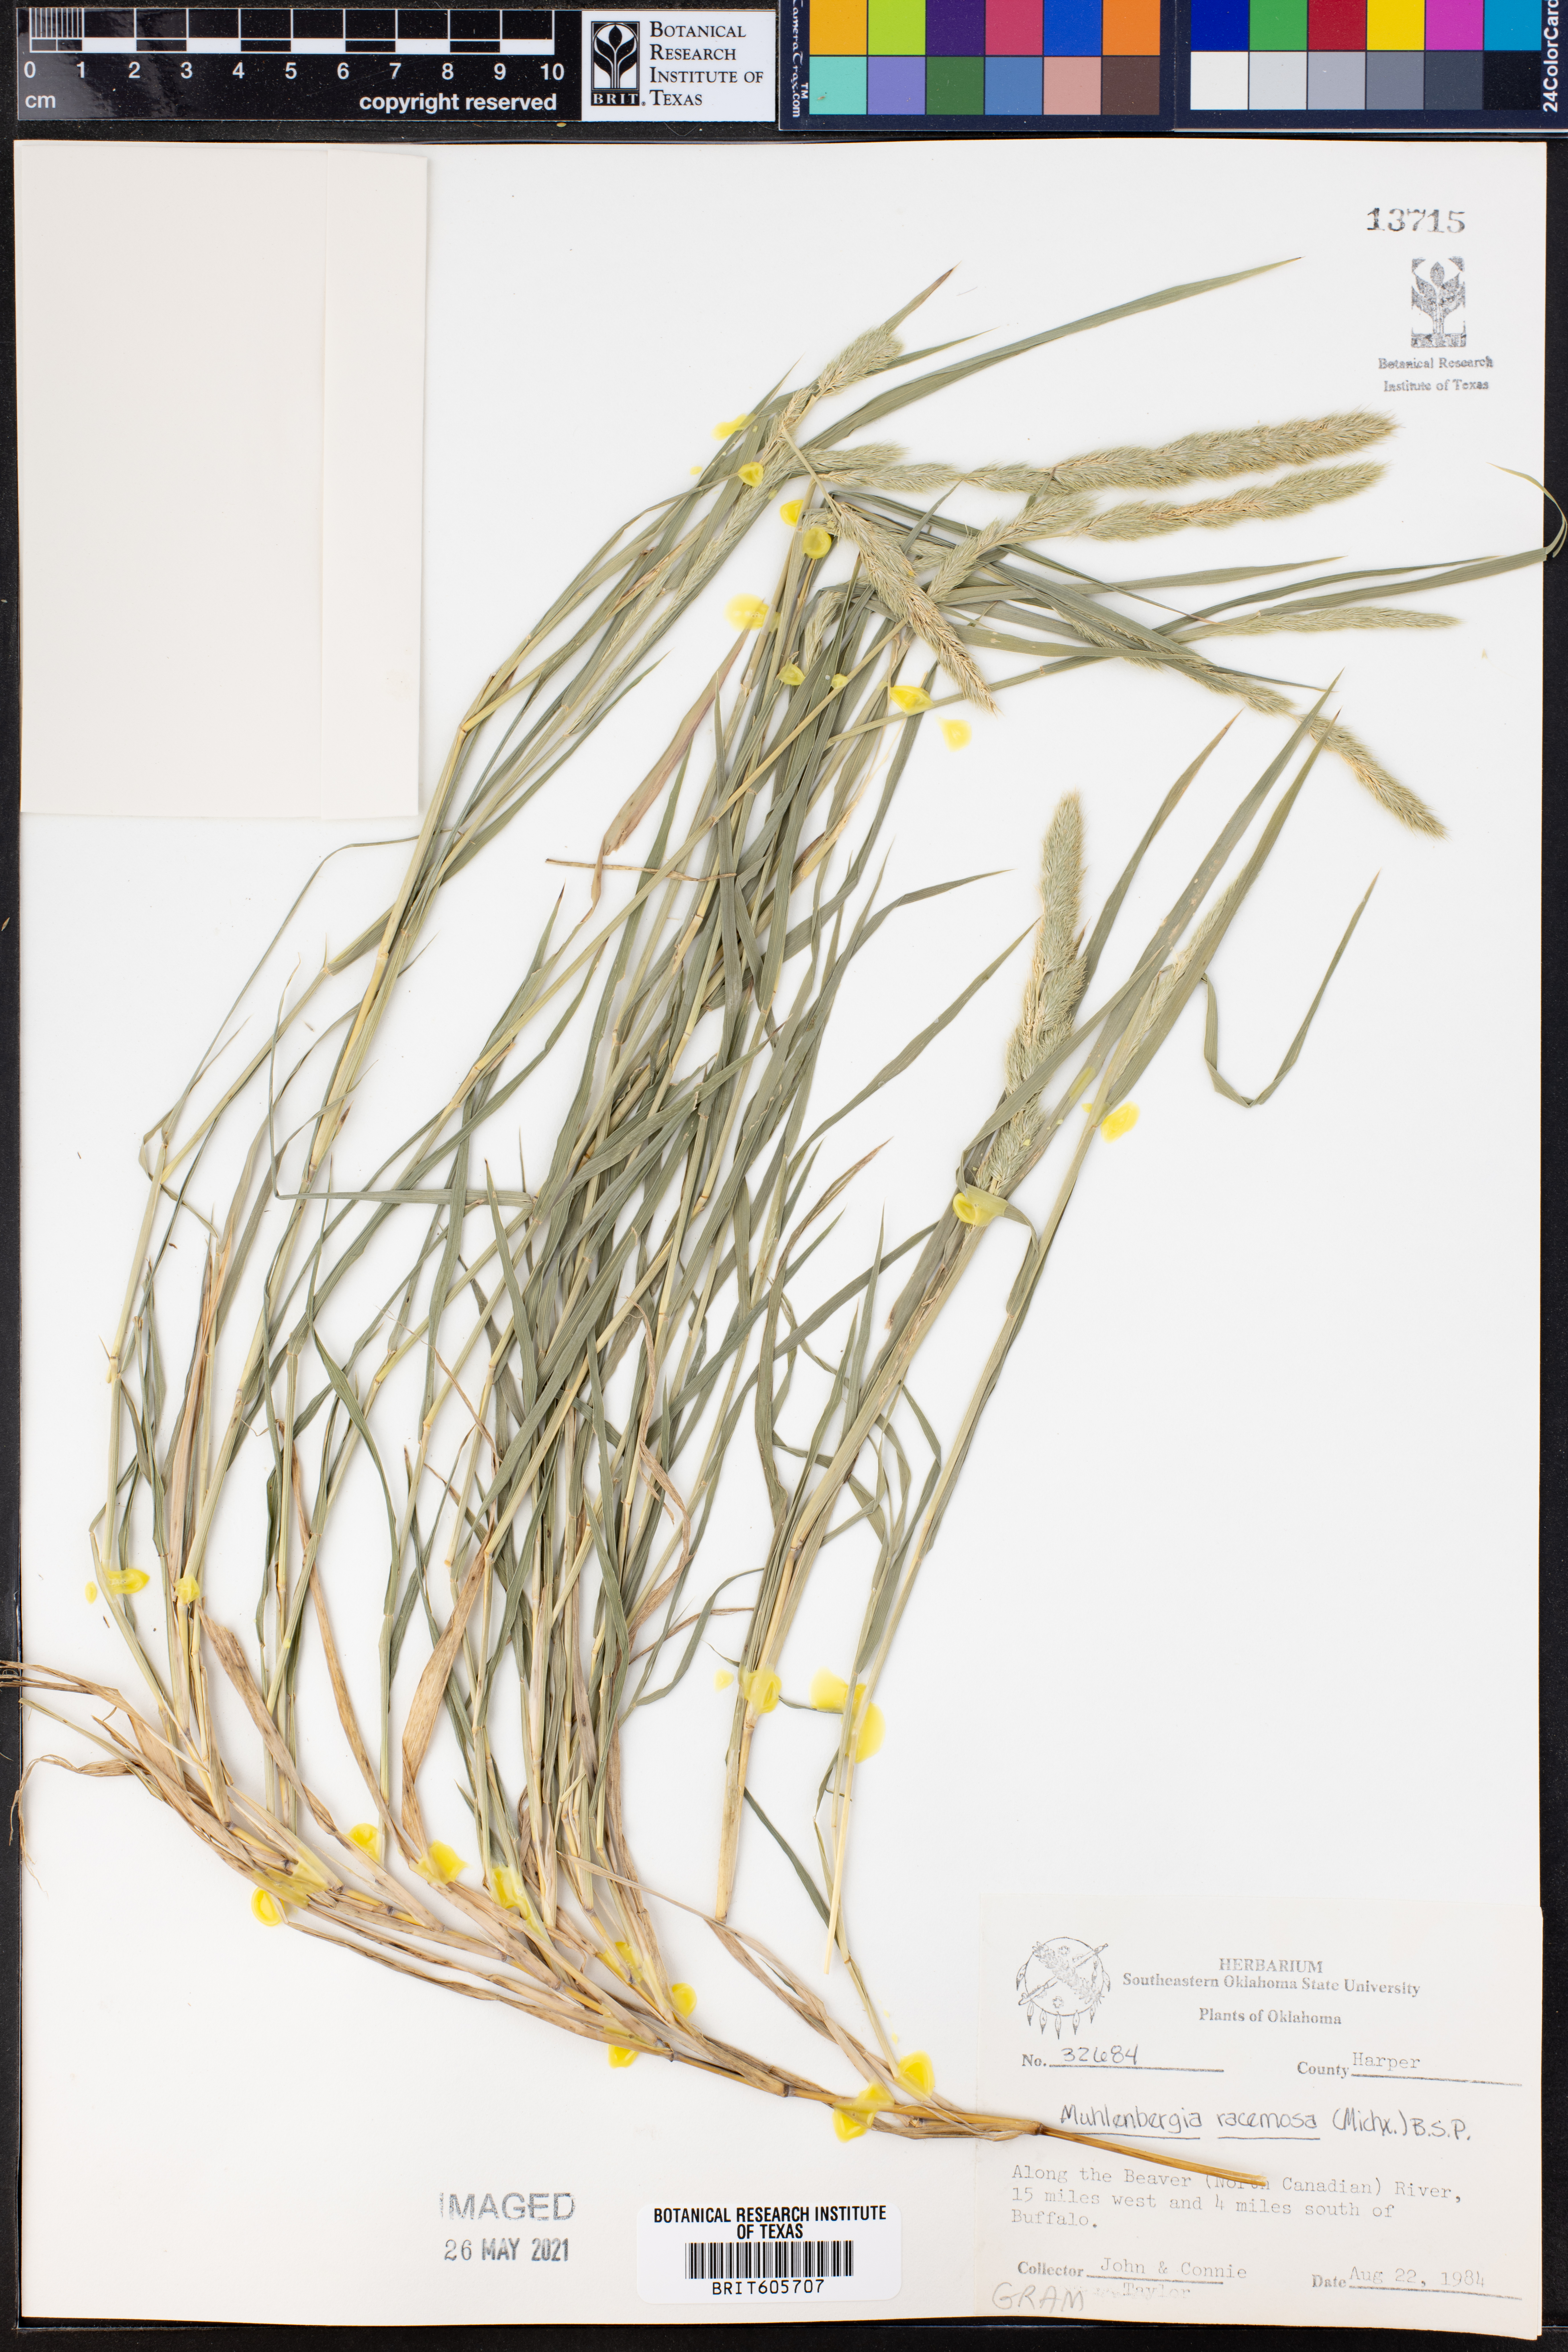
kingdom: Plantae
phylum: Tracheophyta
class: Liliopsida
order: Poales
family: Poaceae
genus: Muhlenbergia
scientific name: Muhlenbergia racemosa
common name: Green muhly
